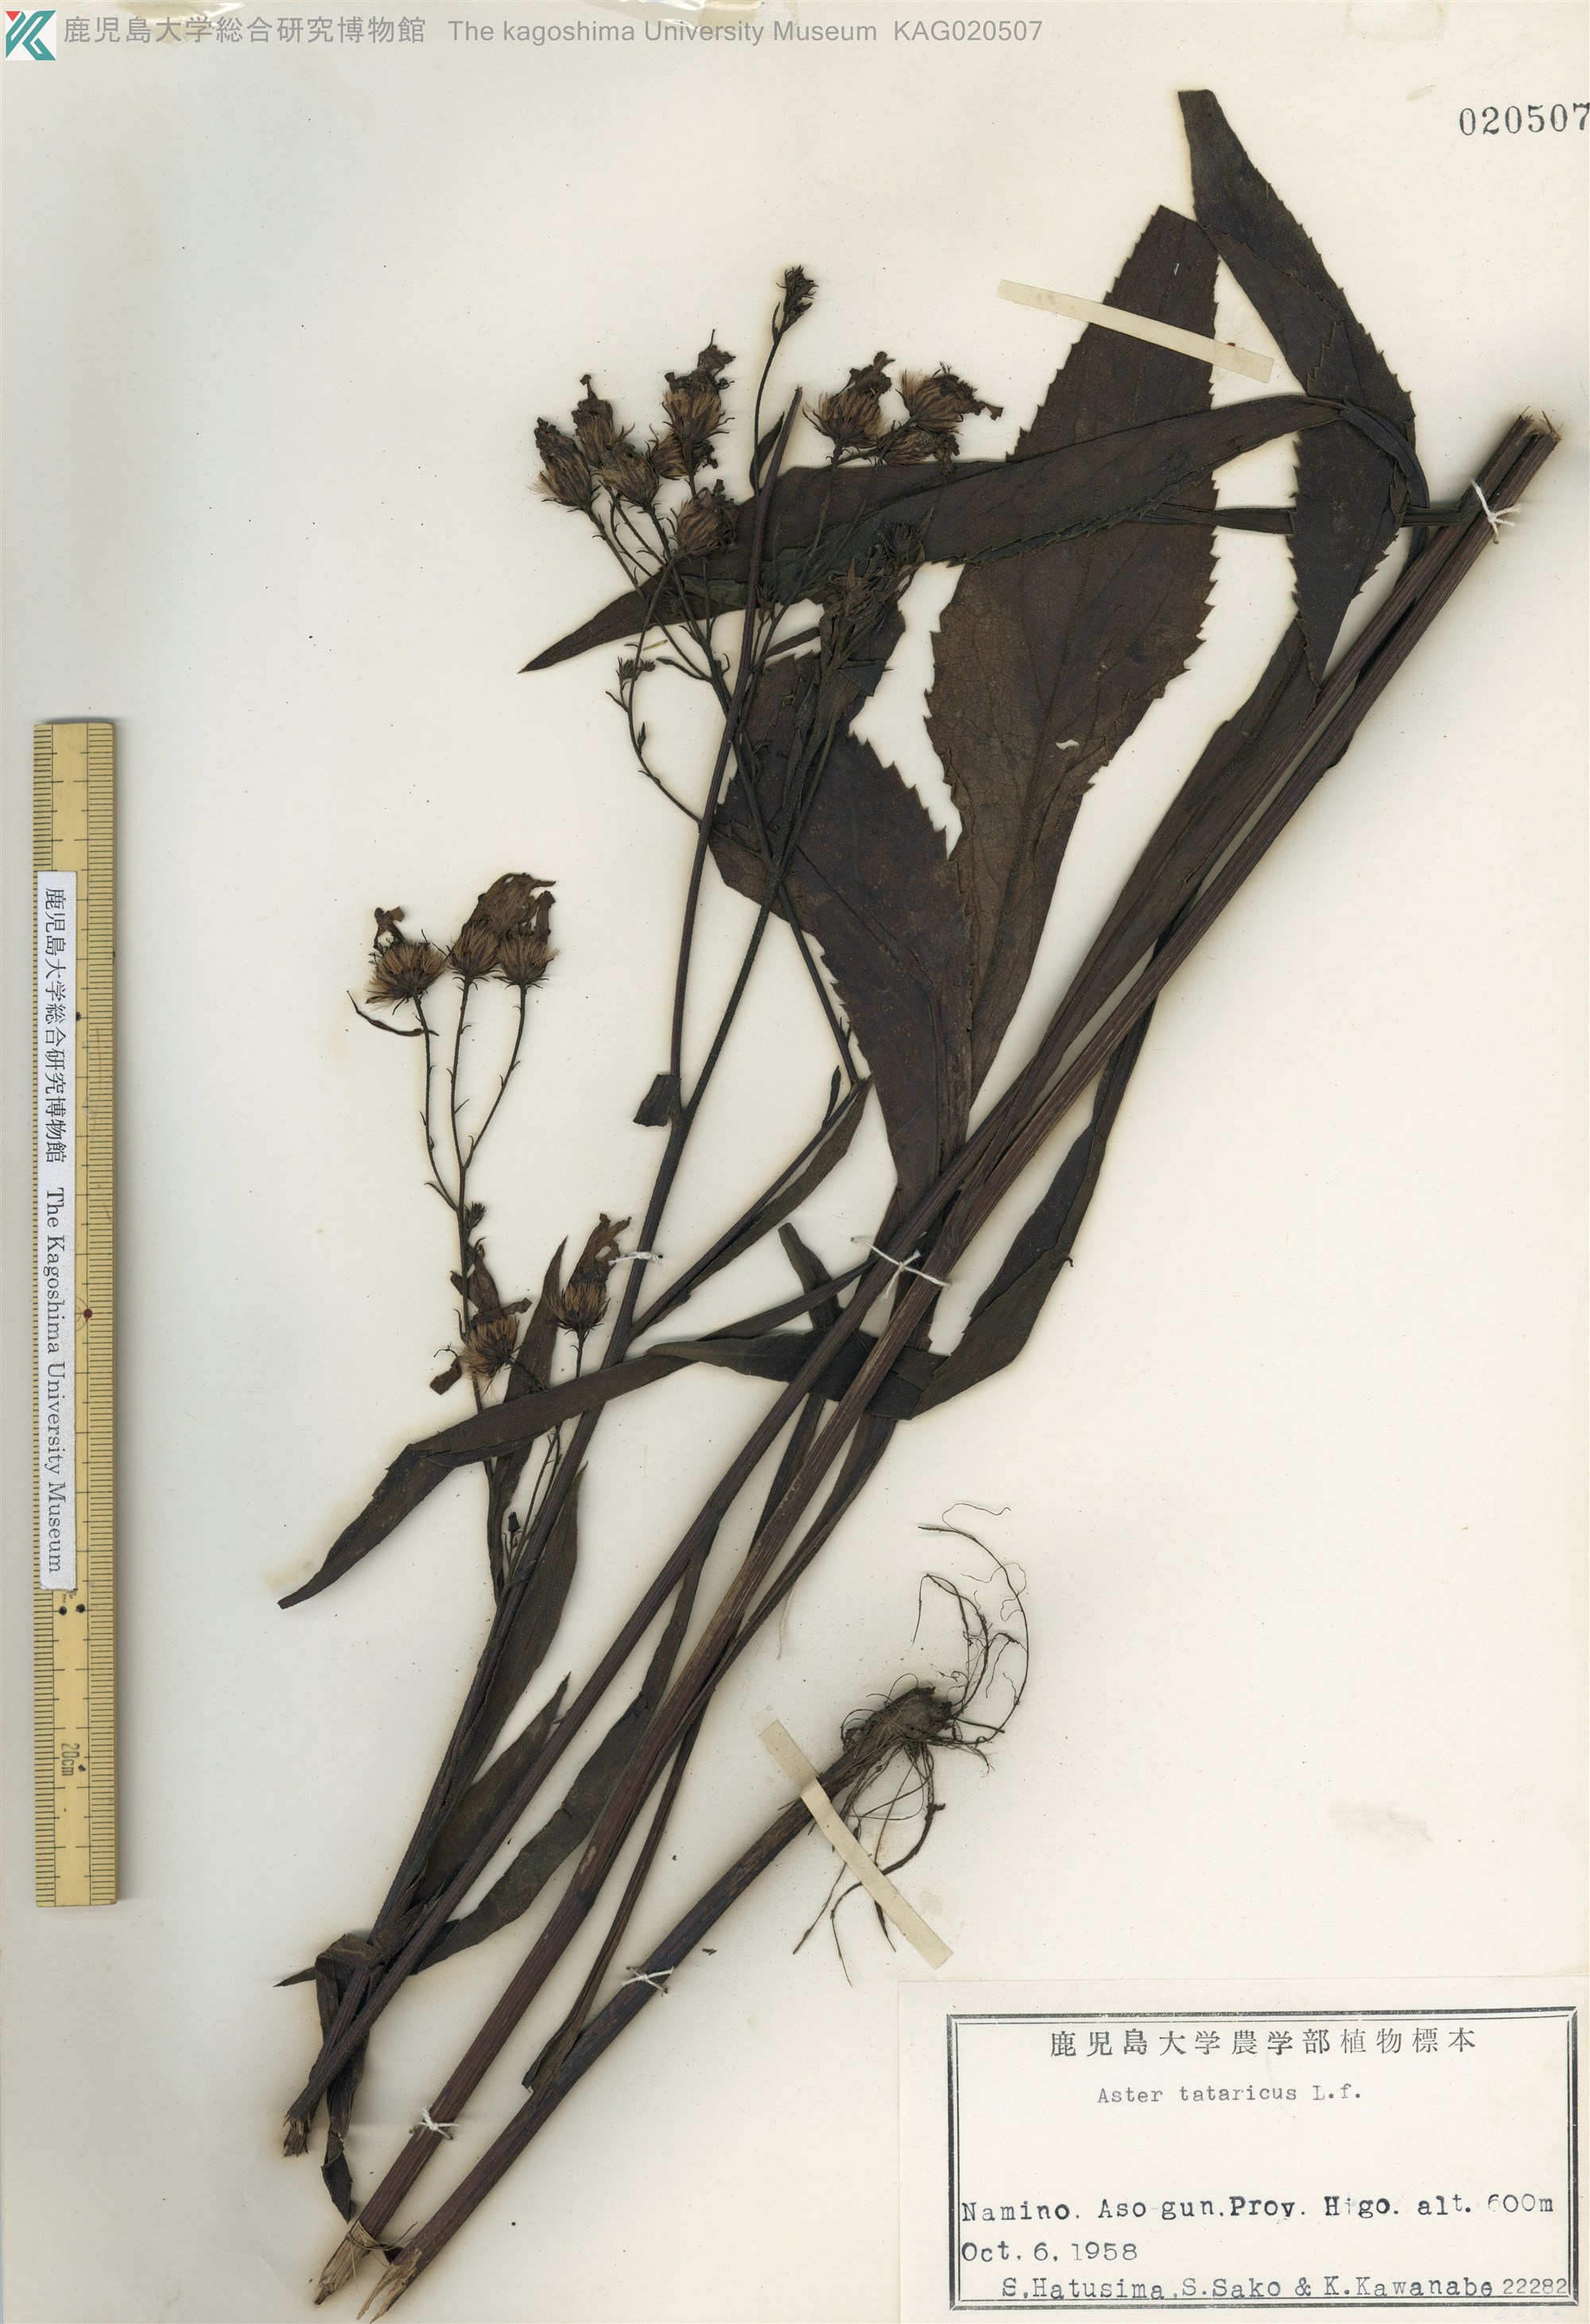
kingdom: Plantae
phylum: Tracheophyta
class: Magnoliopsida
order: Asterales
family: Asteraceae
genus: Aster
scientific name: Aster tataricus
